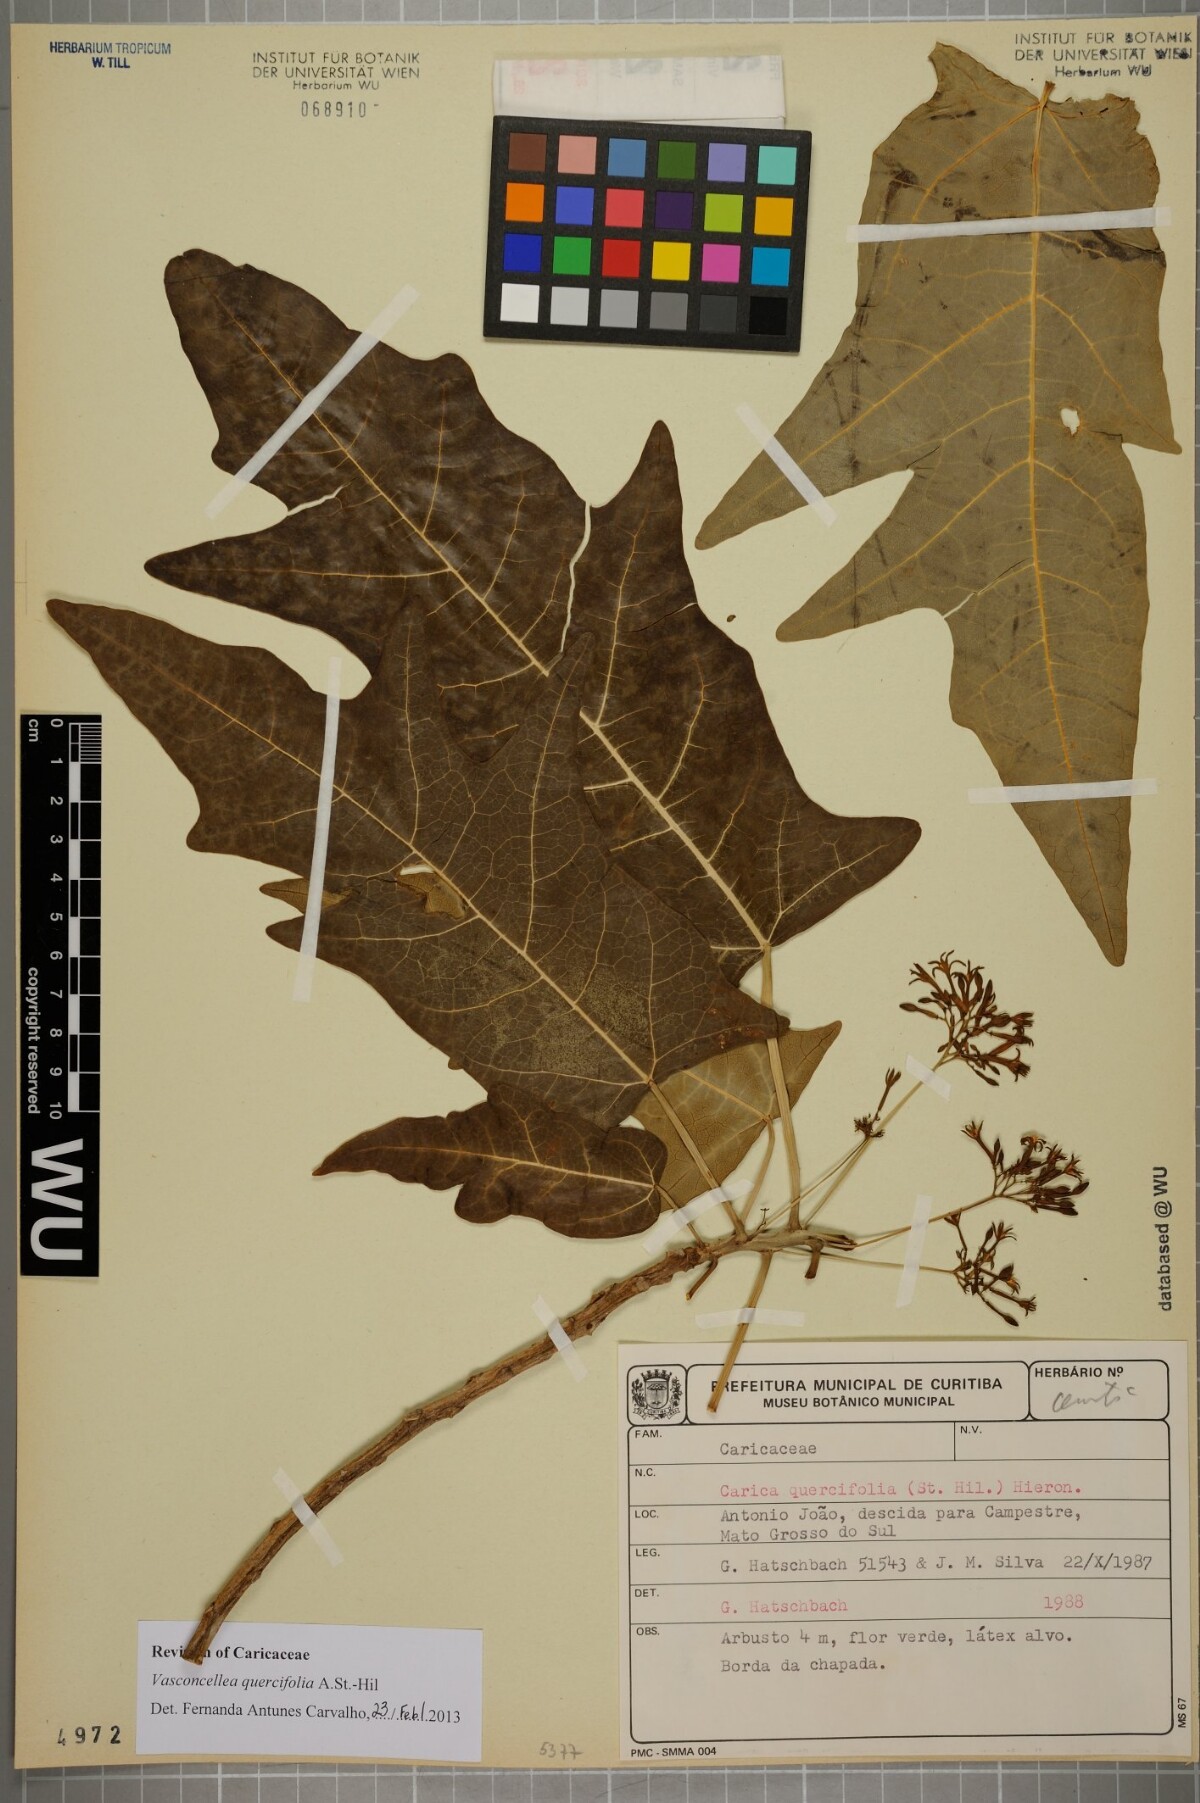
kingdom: Plantae
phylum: Tracheophyta
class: Magnoliopsida
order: Brassicales
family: Caricaceae
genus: Vasconcellea
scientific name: Vasconcellea quercifolia
